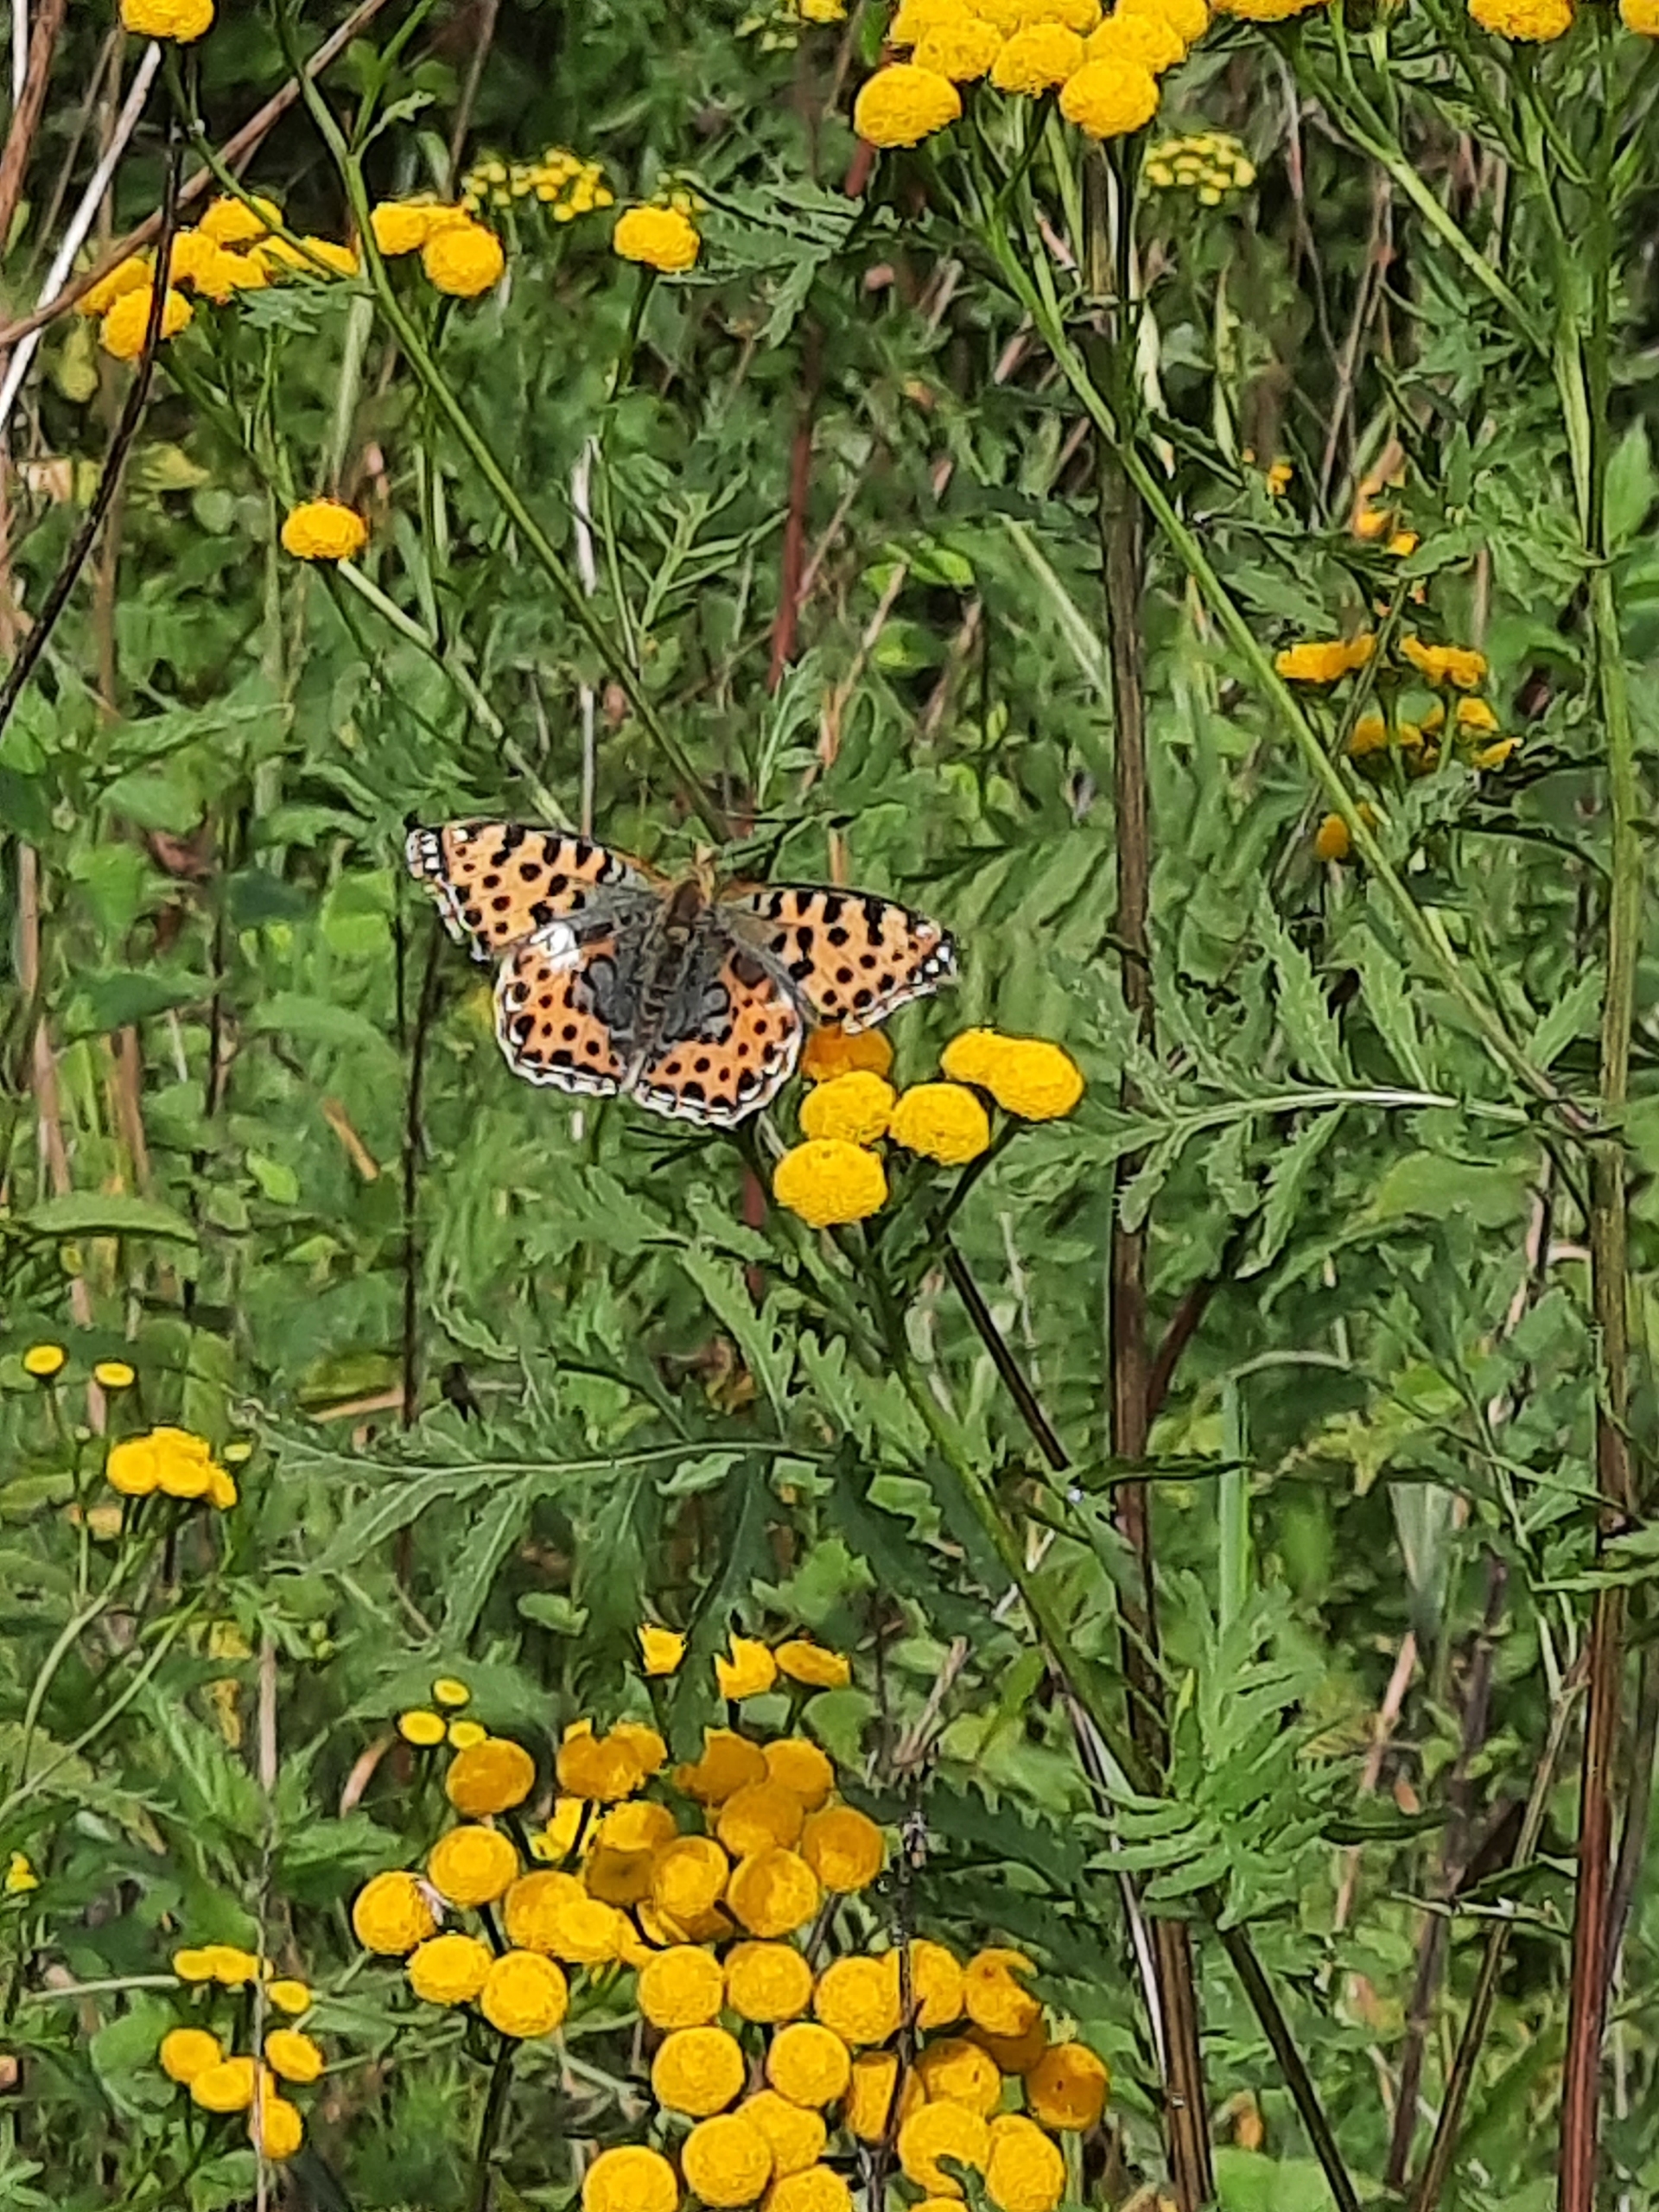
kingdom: Animalia
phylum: Arthropoda
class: Insecta
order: Lepidoptera
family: Nymphalidae
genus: Issoria
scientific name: Issoria lathonia
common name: Storplettet perlemorsommerfugl
